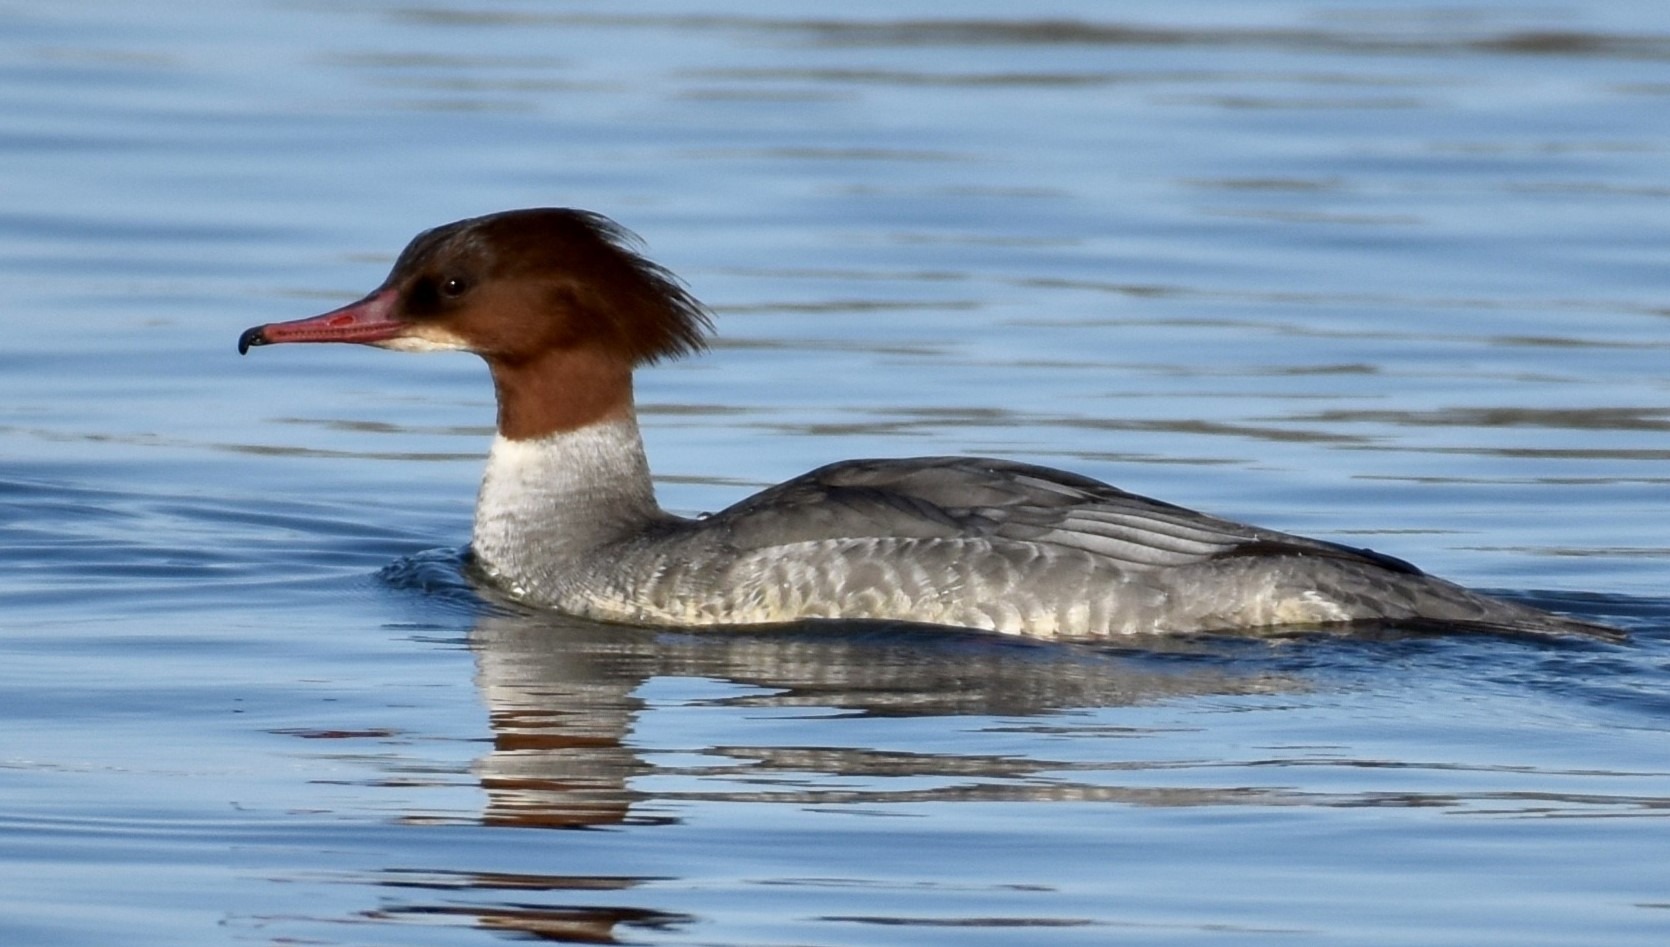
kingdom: Animalia
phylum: Chordata
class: Aves
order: Anseriformes
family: Anatidae
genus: Mergus
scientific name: Mergus merganser
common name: Stor skallesluger
